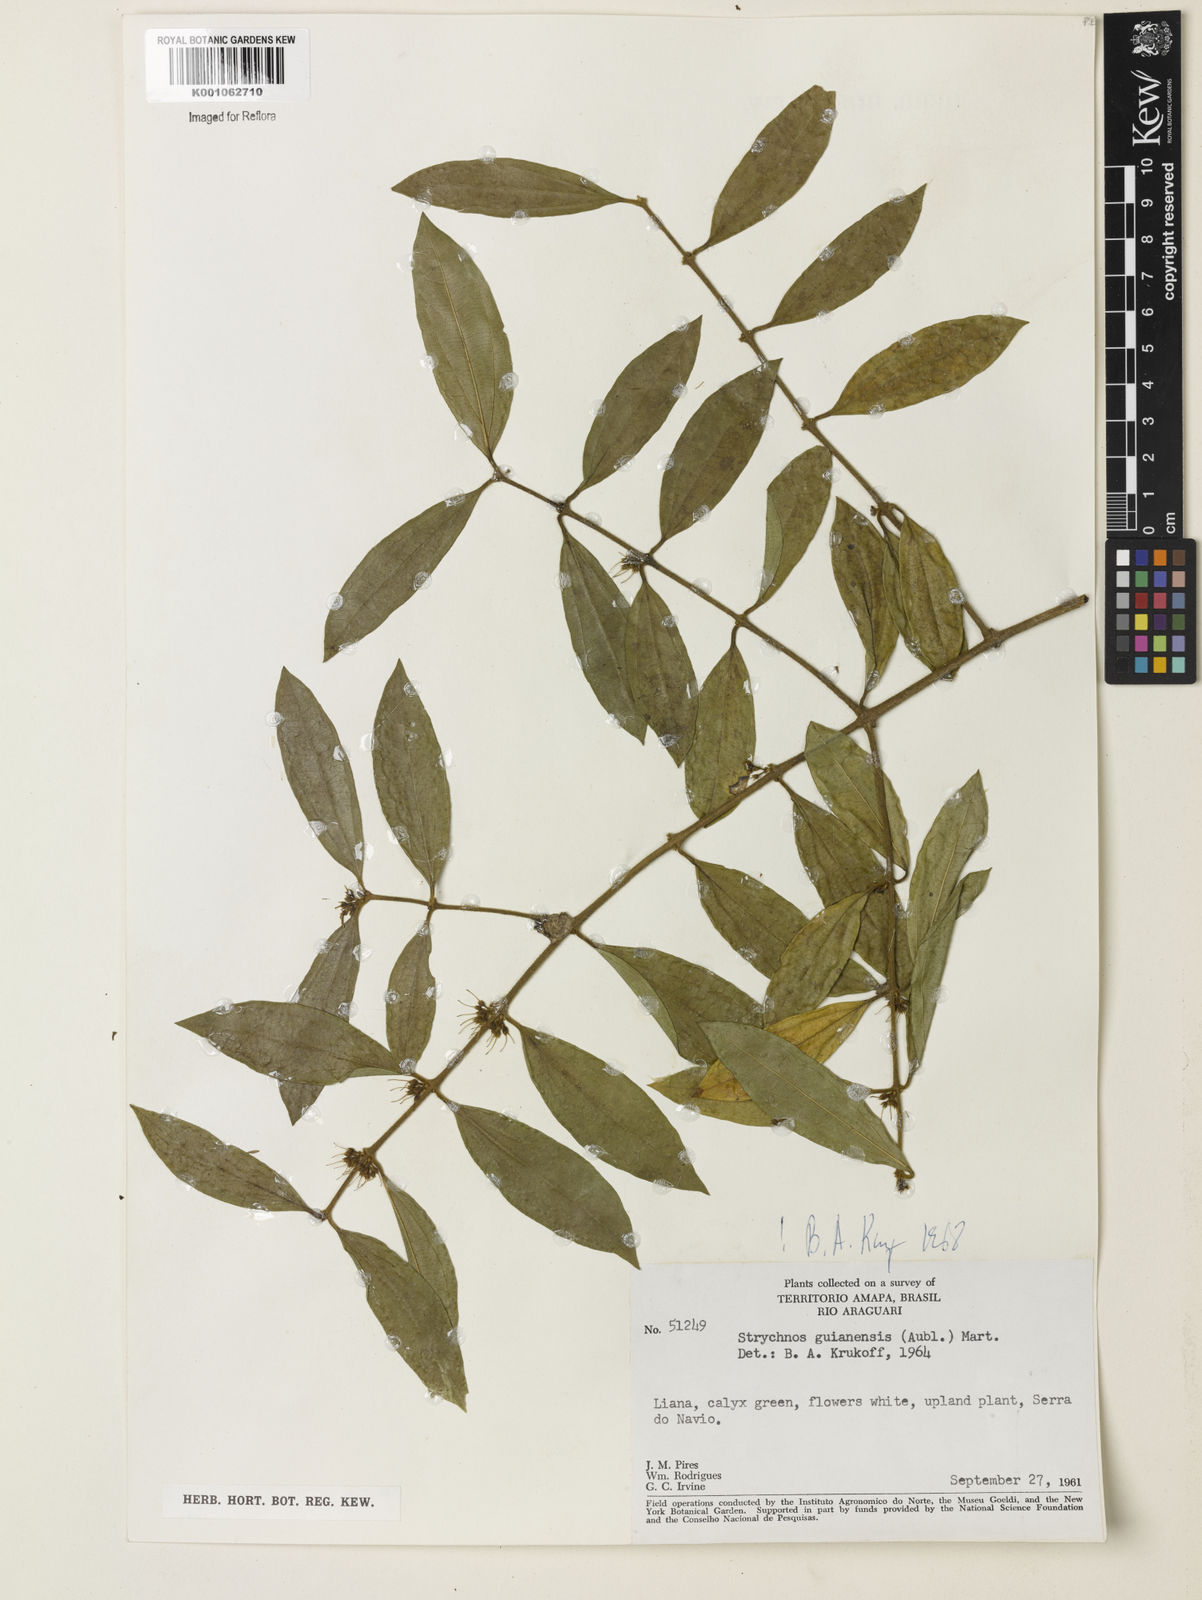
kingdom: Plantae
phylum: Tracheophyta
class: Magnoliopsida
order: Gentianales
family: Loganiaceae
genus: Strychnos
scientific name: Strychnos guianensis
